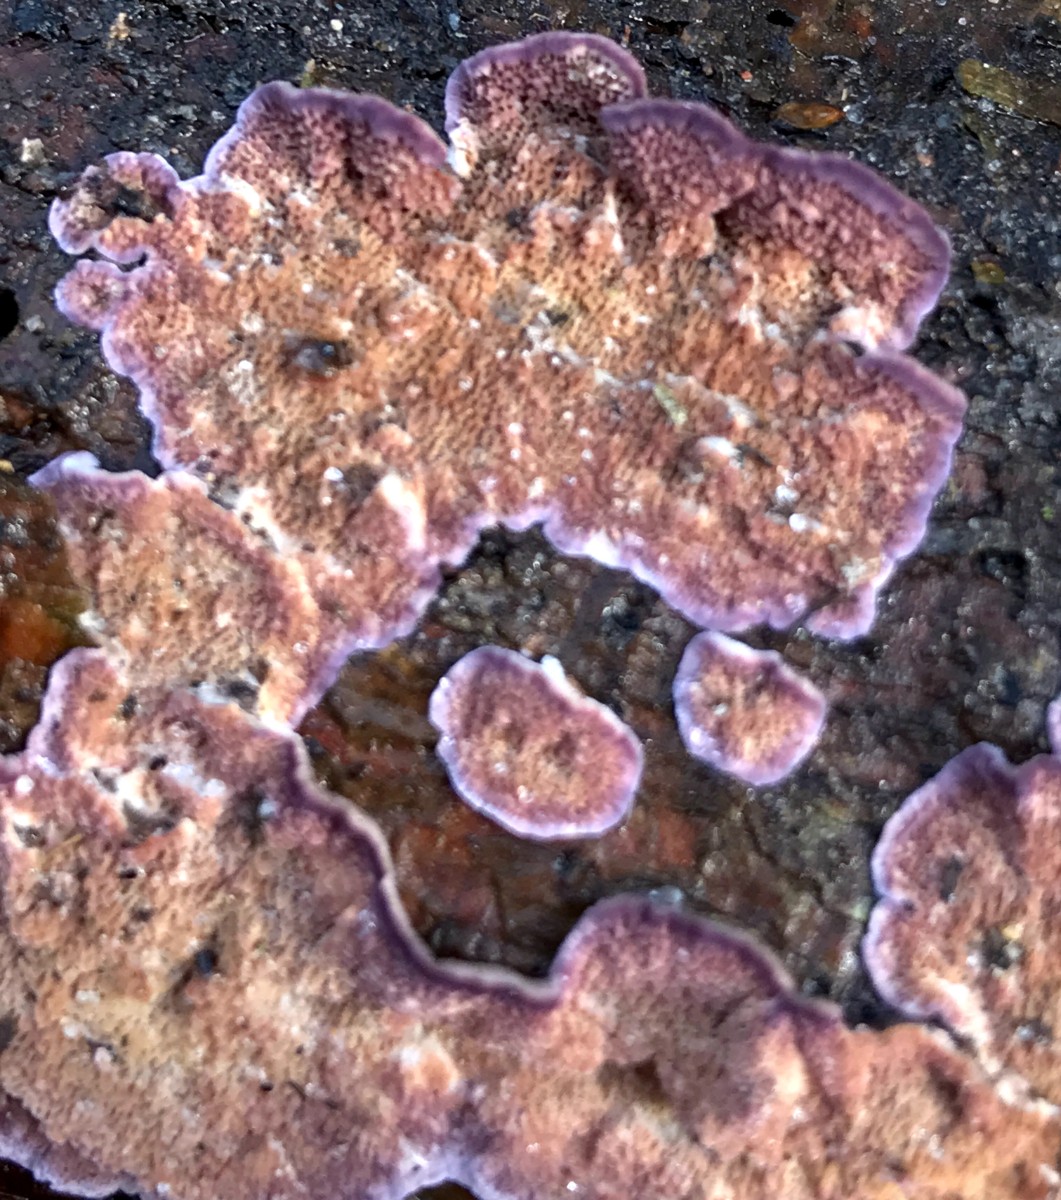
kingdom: Fungi
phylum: Basidiomycota
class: Agaricomycetes
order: Hymenochaetales
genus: Trichaptum
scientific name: Trichaptum abietinum
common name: almindelig violporesvamp
